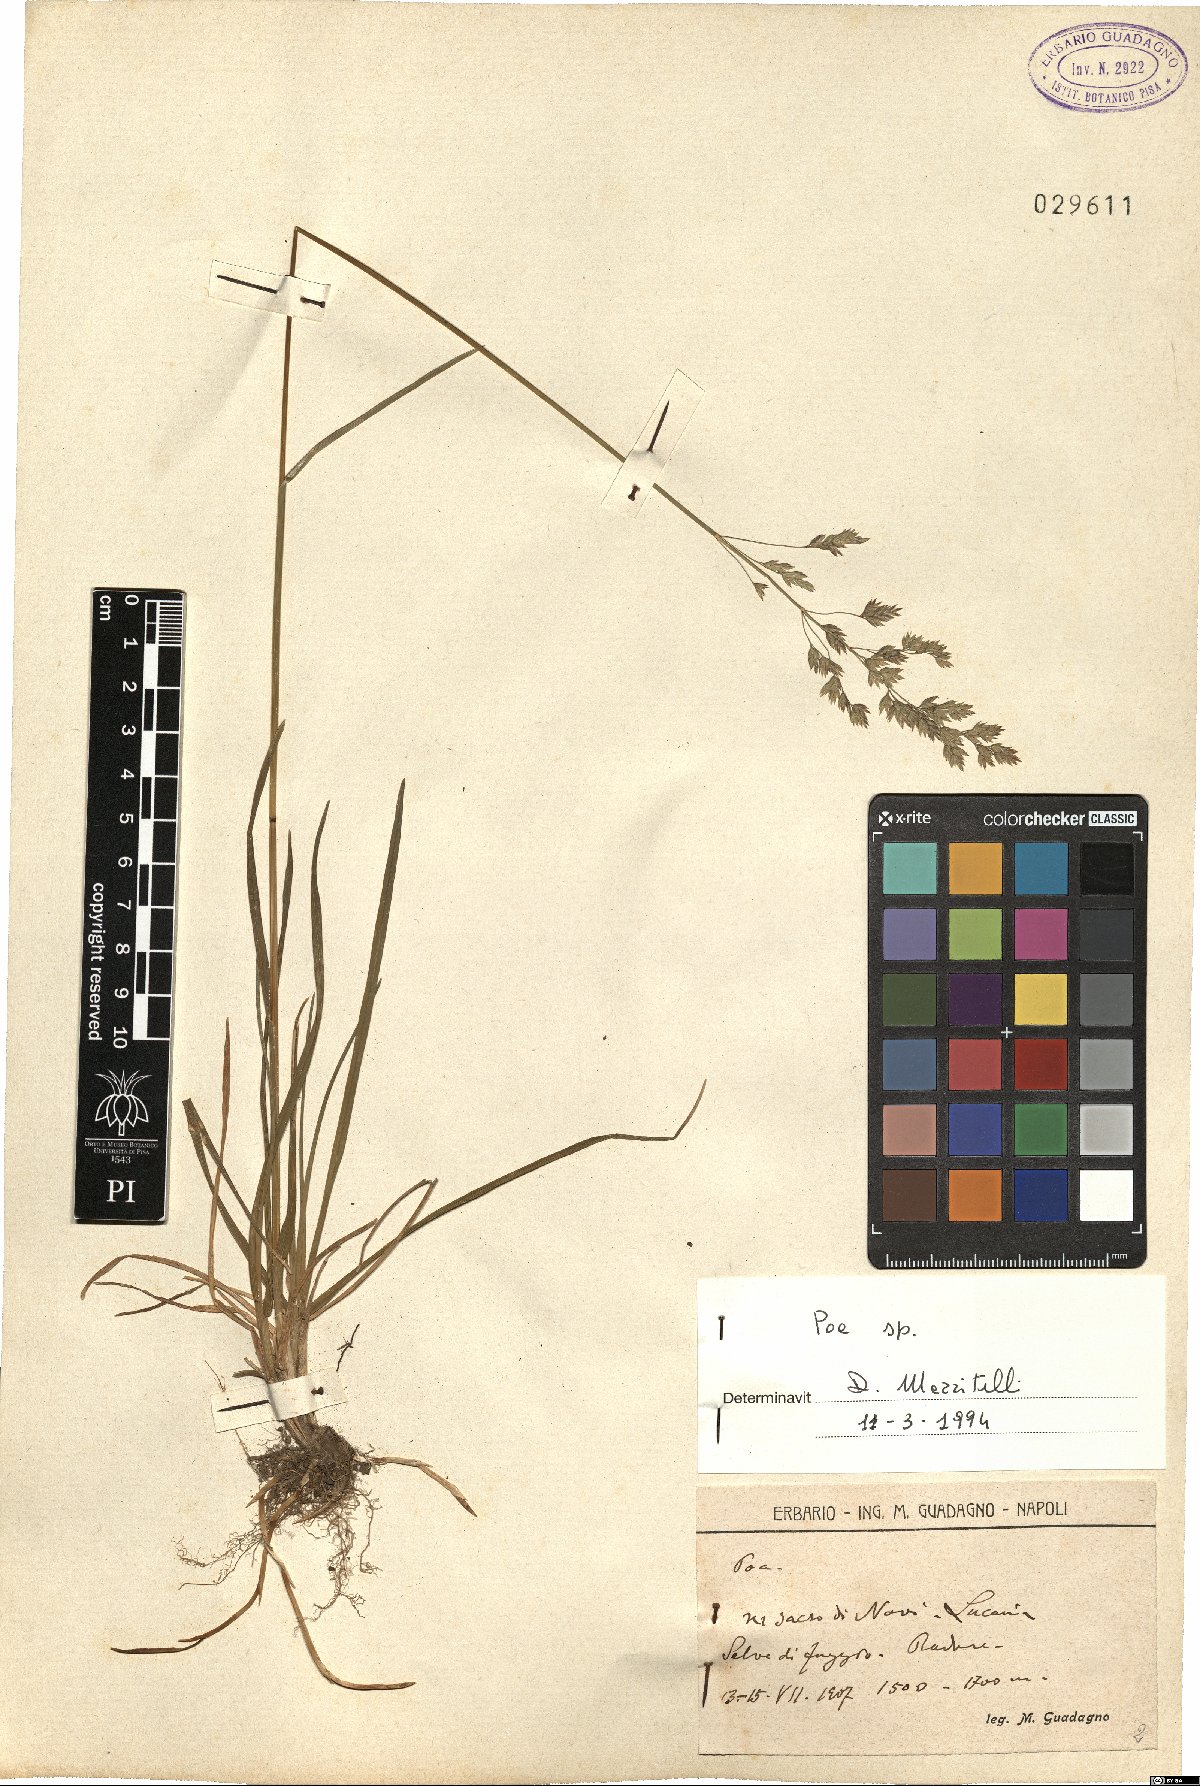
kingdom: Plantae
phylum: Tracheophyta
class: Liliopsida
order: Poales
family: Poaceae
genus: Poa
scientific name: Poa
